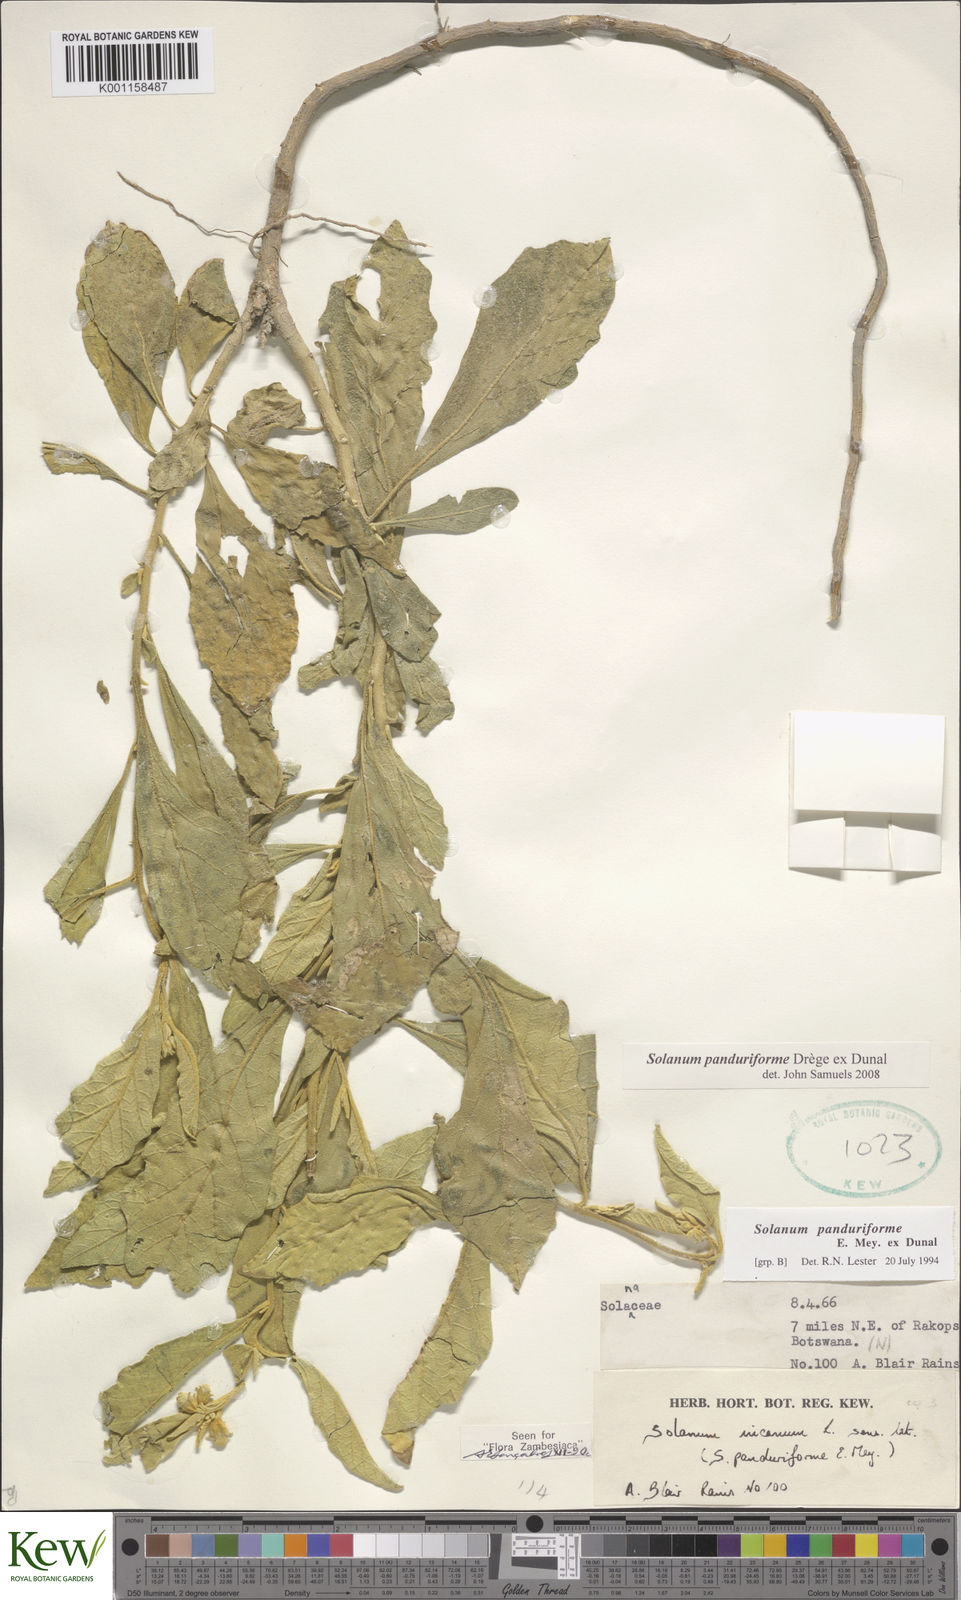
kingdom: Plantae
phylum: Tracheophyta
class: Magnoliopsida
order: Solanales
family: Solanaceae
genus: Solanum
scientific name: Solanum campylacanthum
